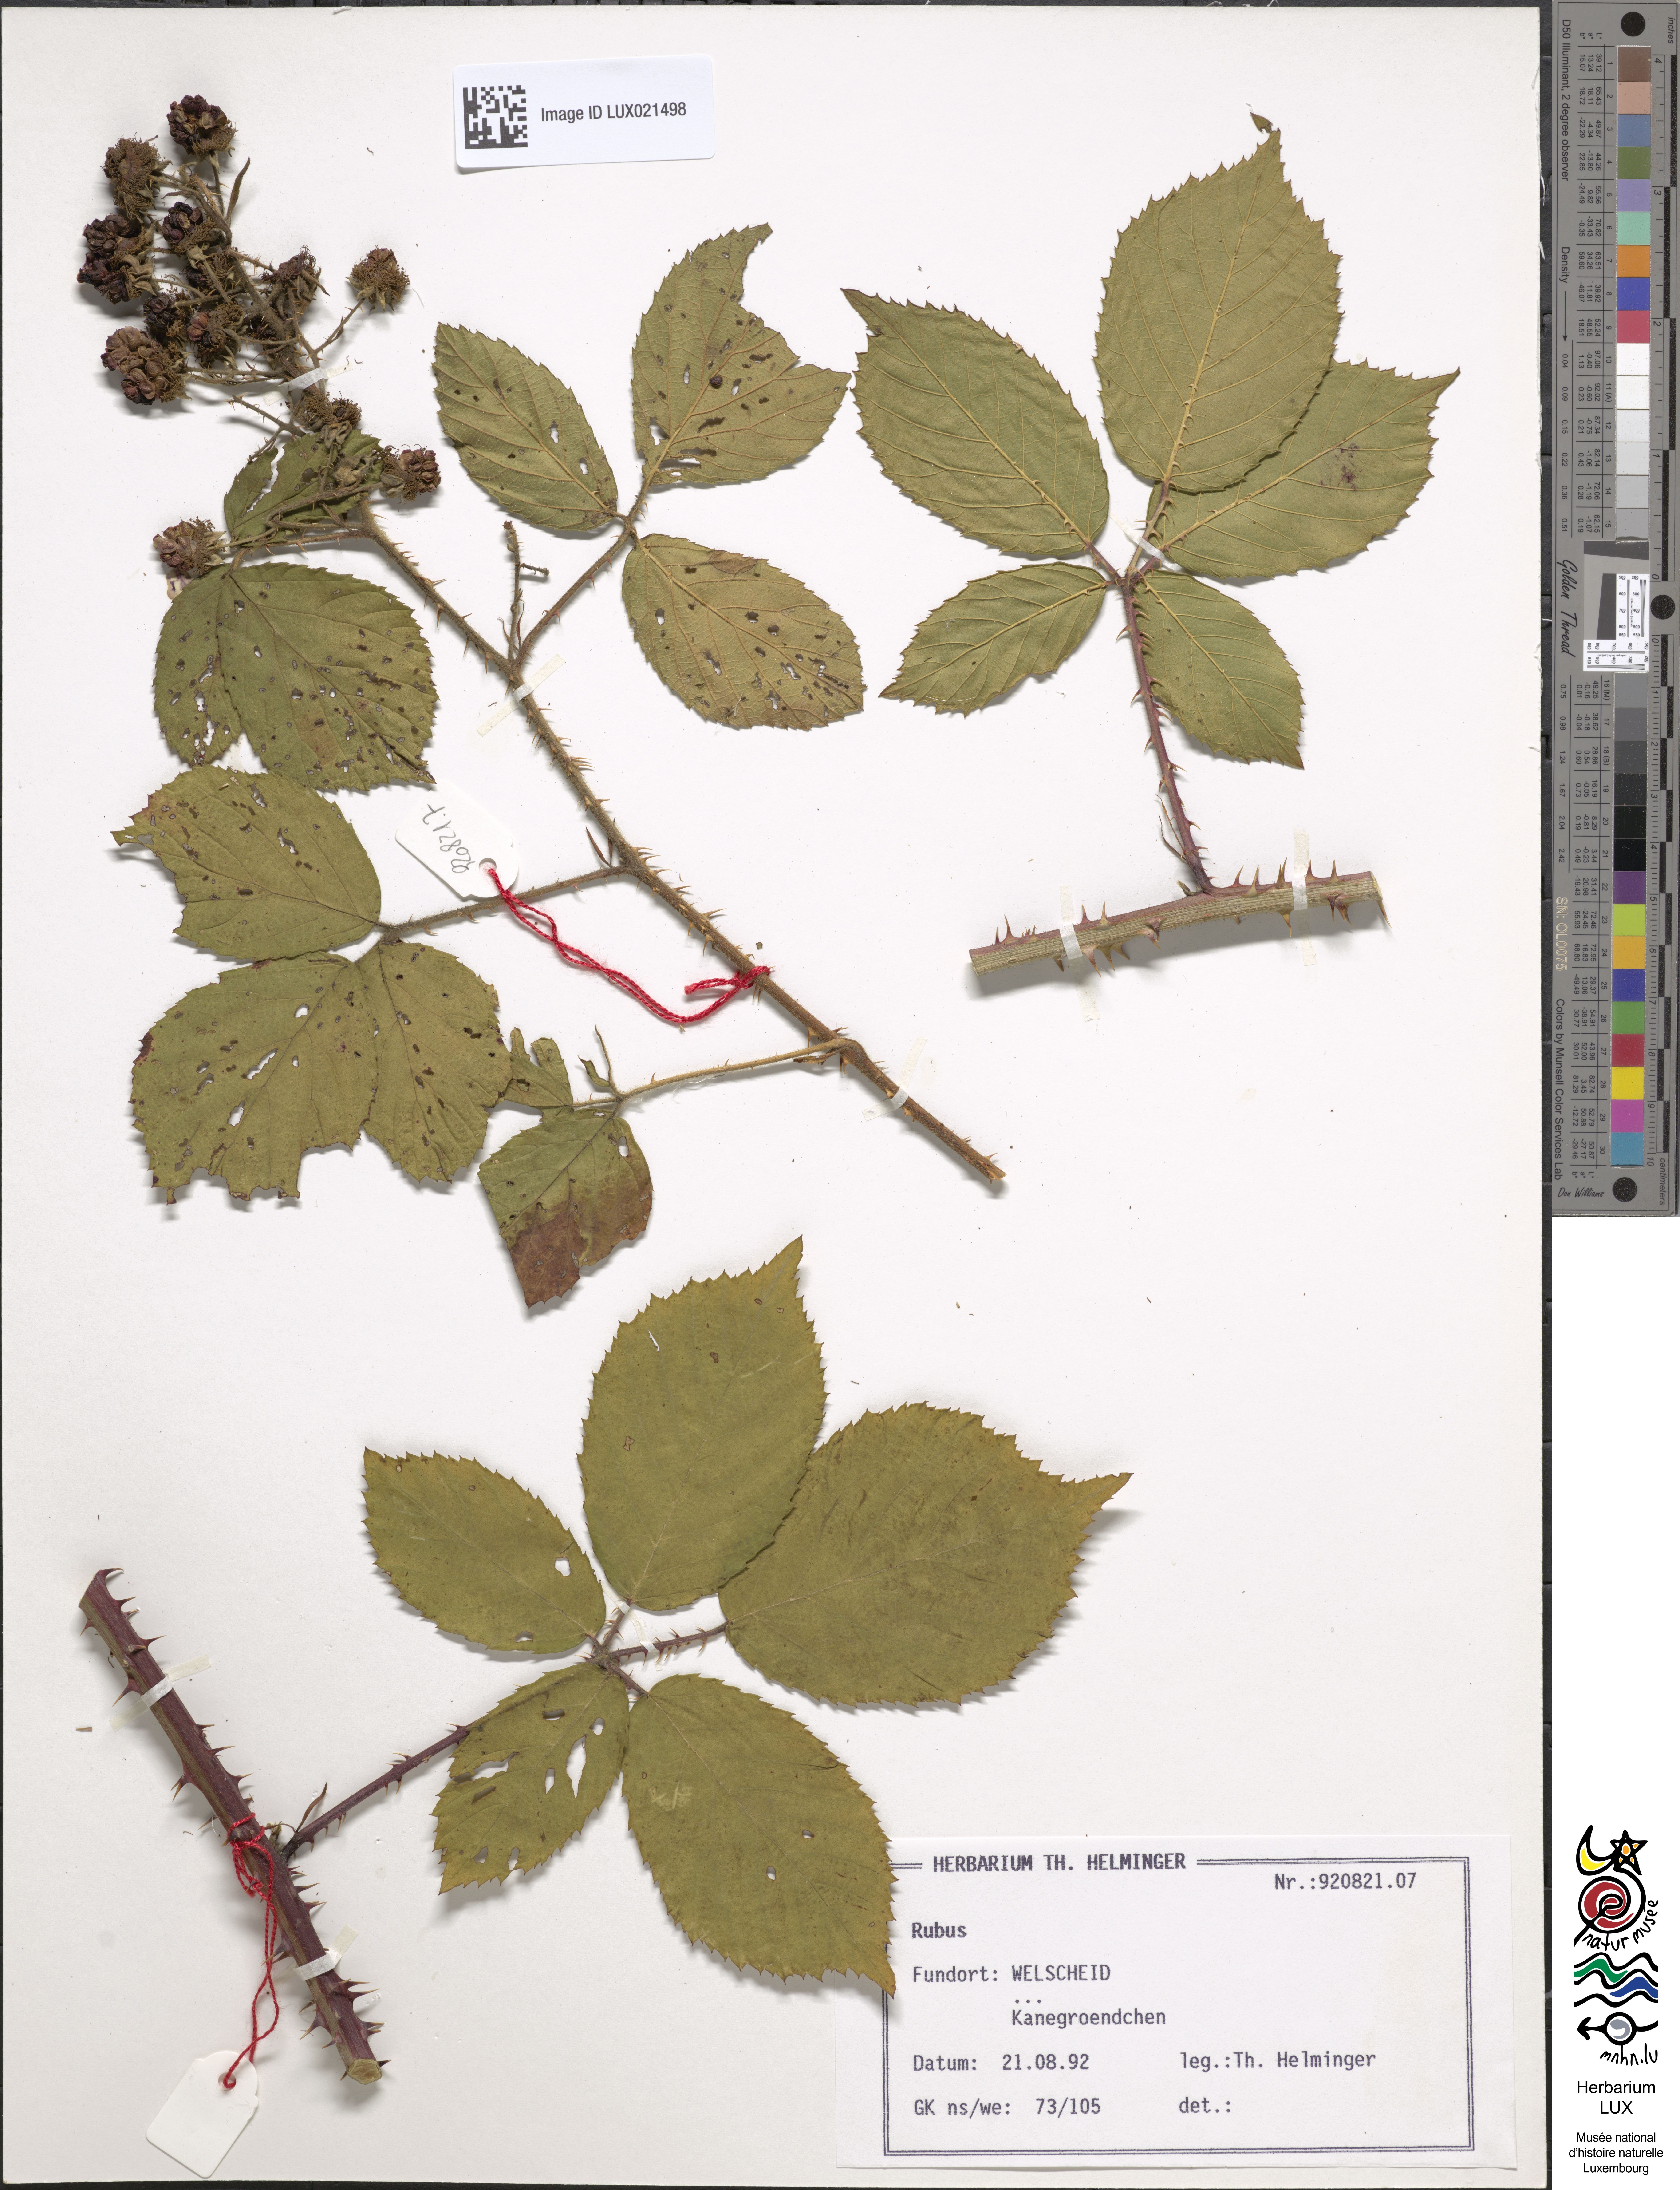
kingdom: Plantae
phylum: Tracheophyta
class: Magnoliopsida
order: Rosales
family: Rosaceae
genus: Rubus
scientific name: Rubus
